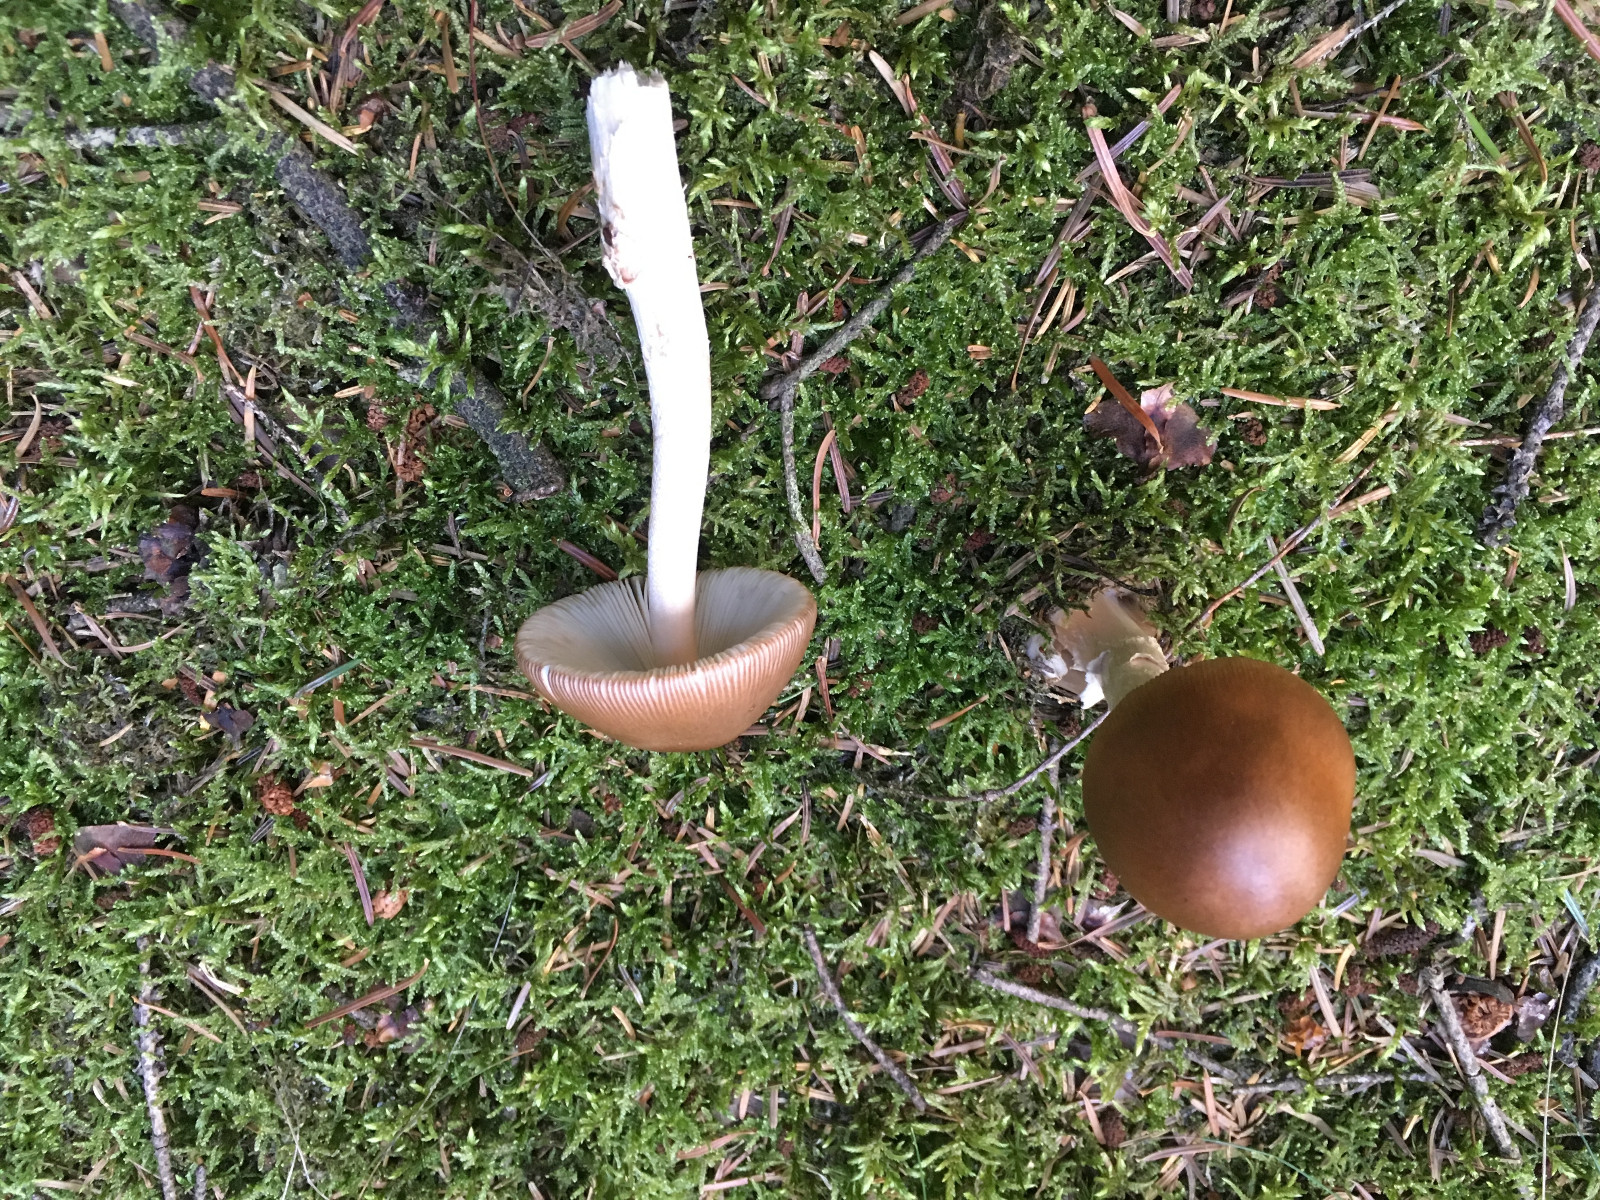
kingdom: Fungi
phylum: Basidiomycota
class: Agaricomycetes
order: Agaricales
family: Amanitaceae
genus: Amanita
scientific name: Amanita fulva
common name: brun kam-fluesvamp
